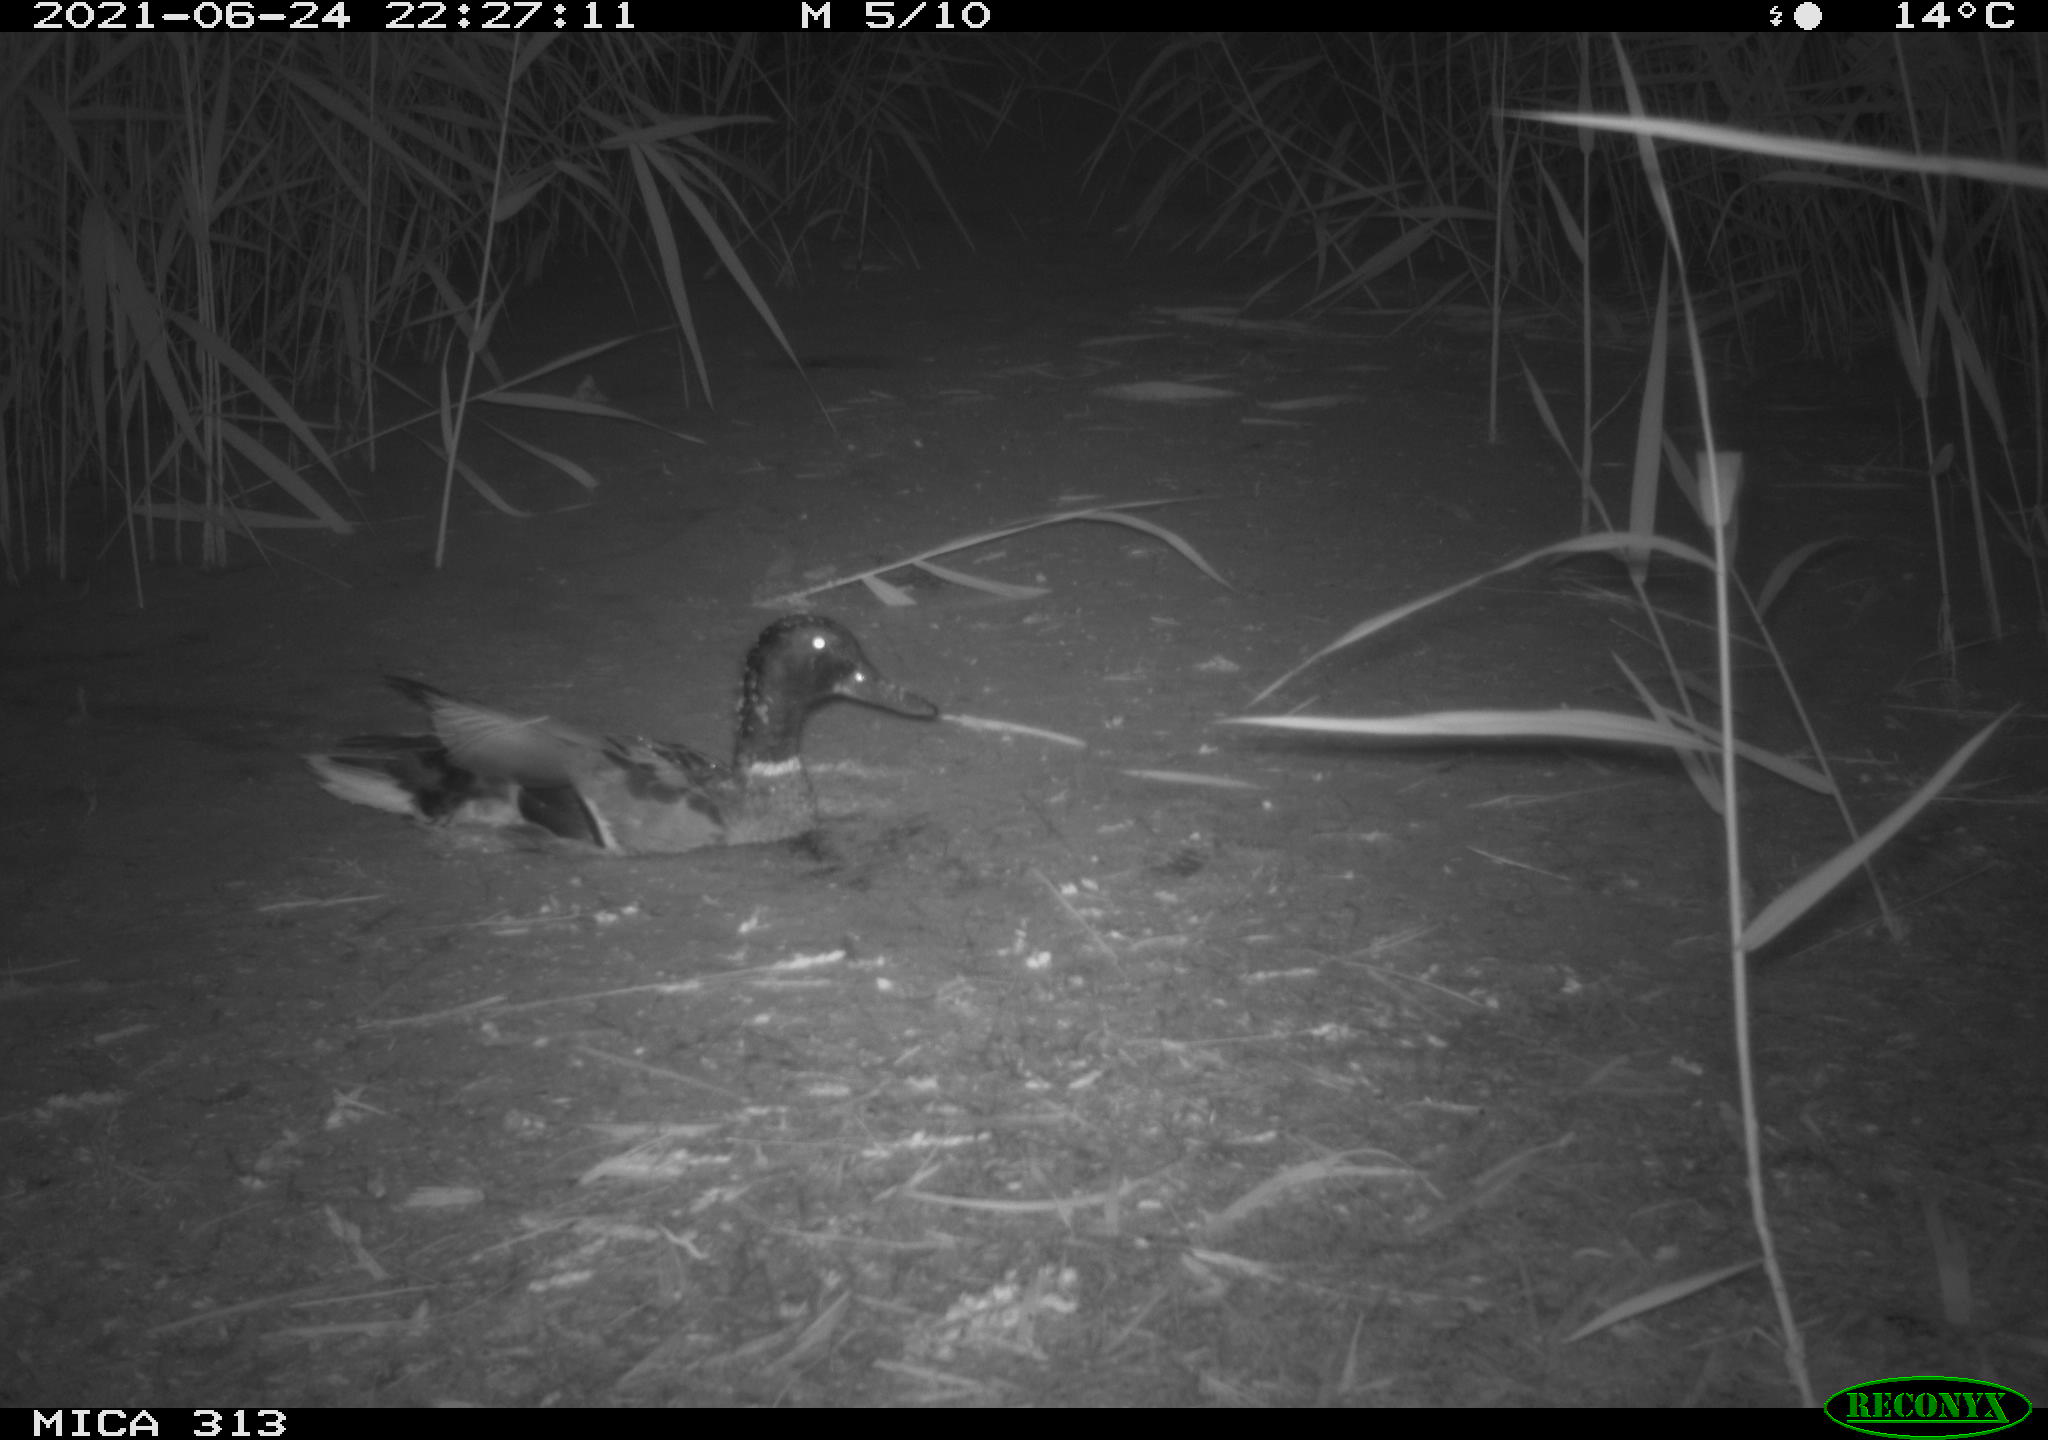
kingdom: Animalia
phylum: Chordata
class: Aves
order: Anseriformes
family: Anatidae
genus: Anas
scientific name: Anas
